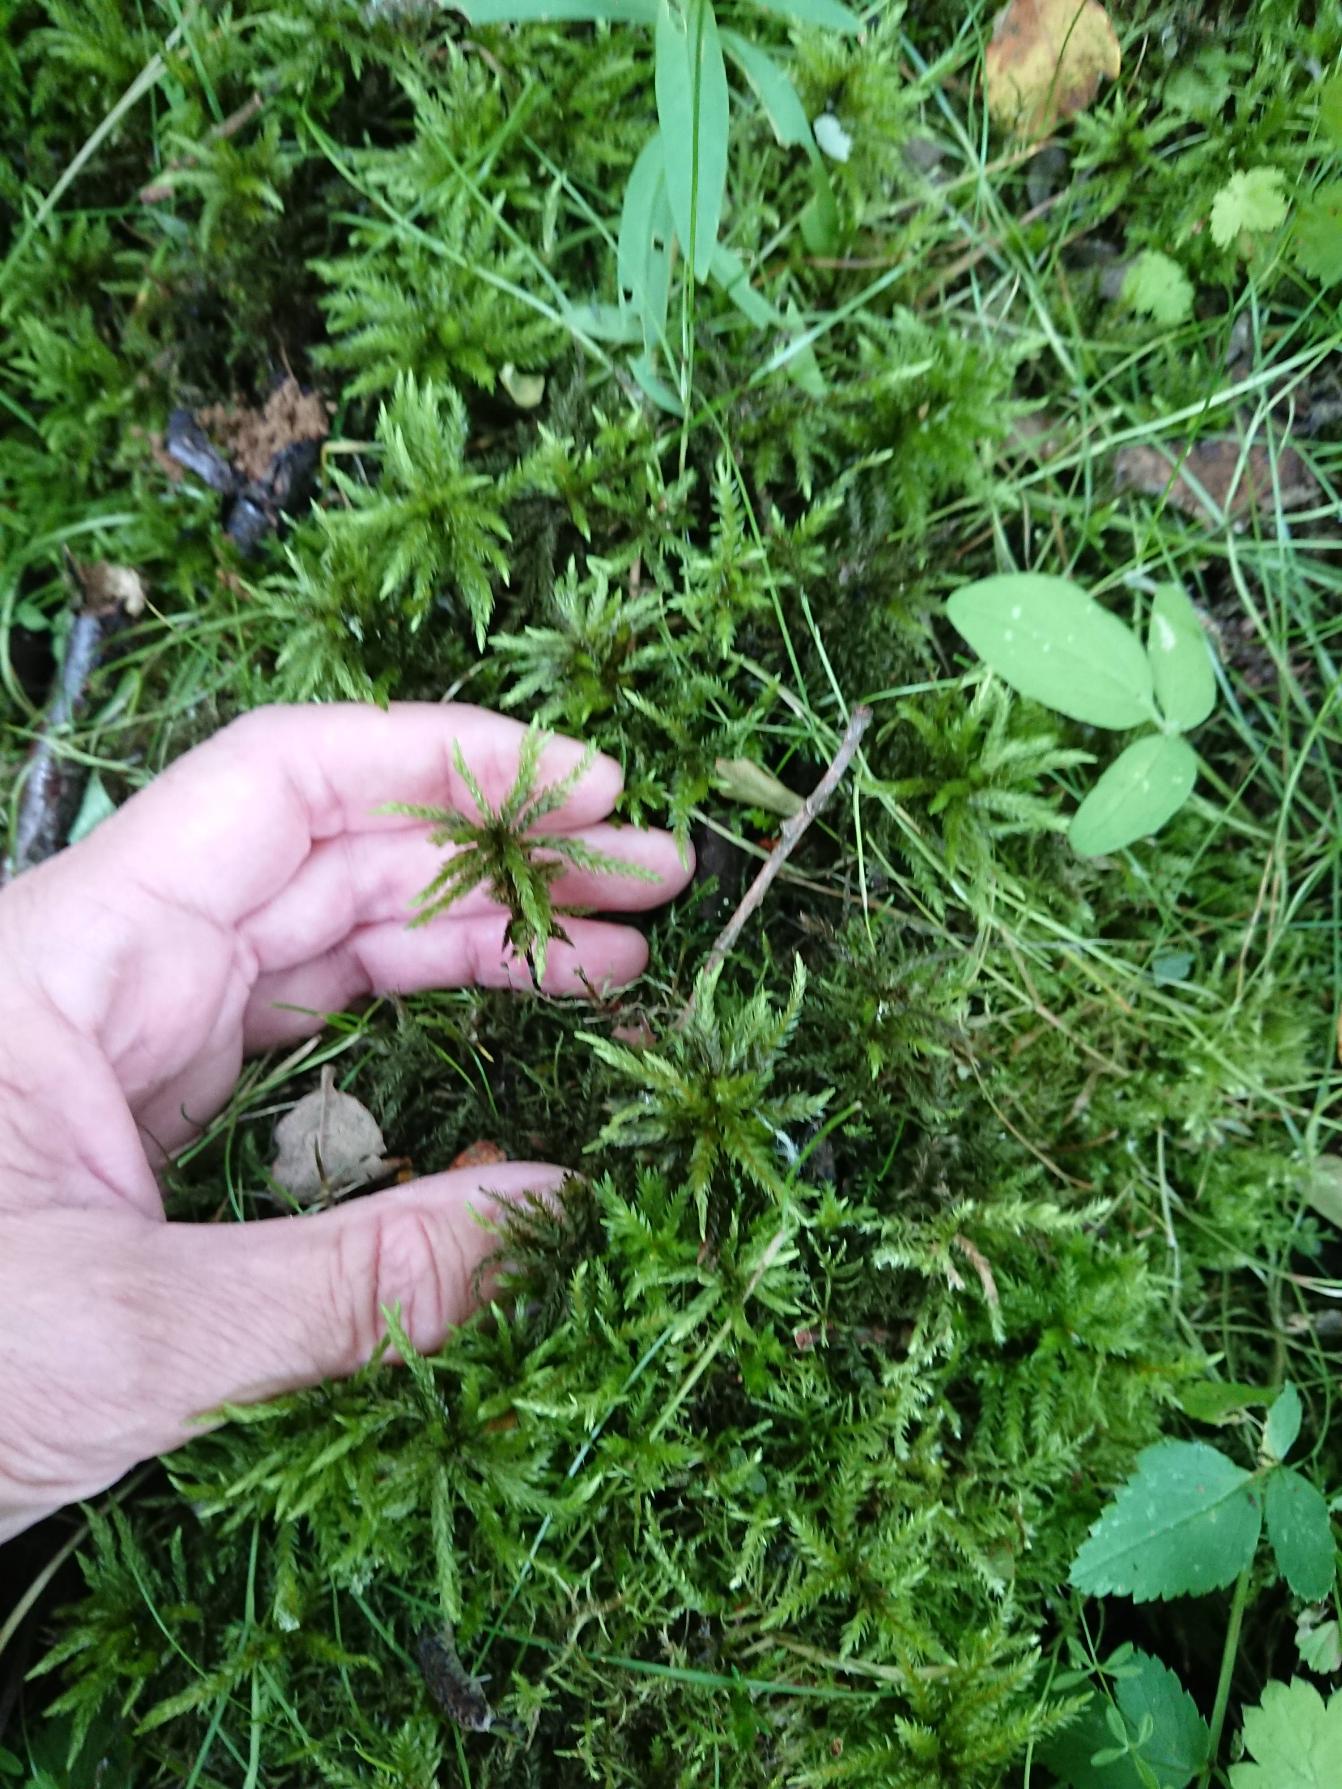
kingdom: Plantae
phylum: Bryophyta
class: Bryopsida
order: Hypnales
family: Climaciaceae
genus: Climacium
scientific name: Climacium dendroides
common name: Stor engkost
